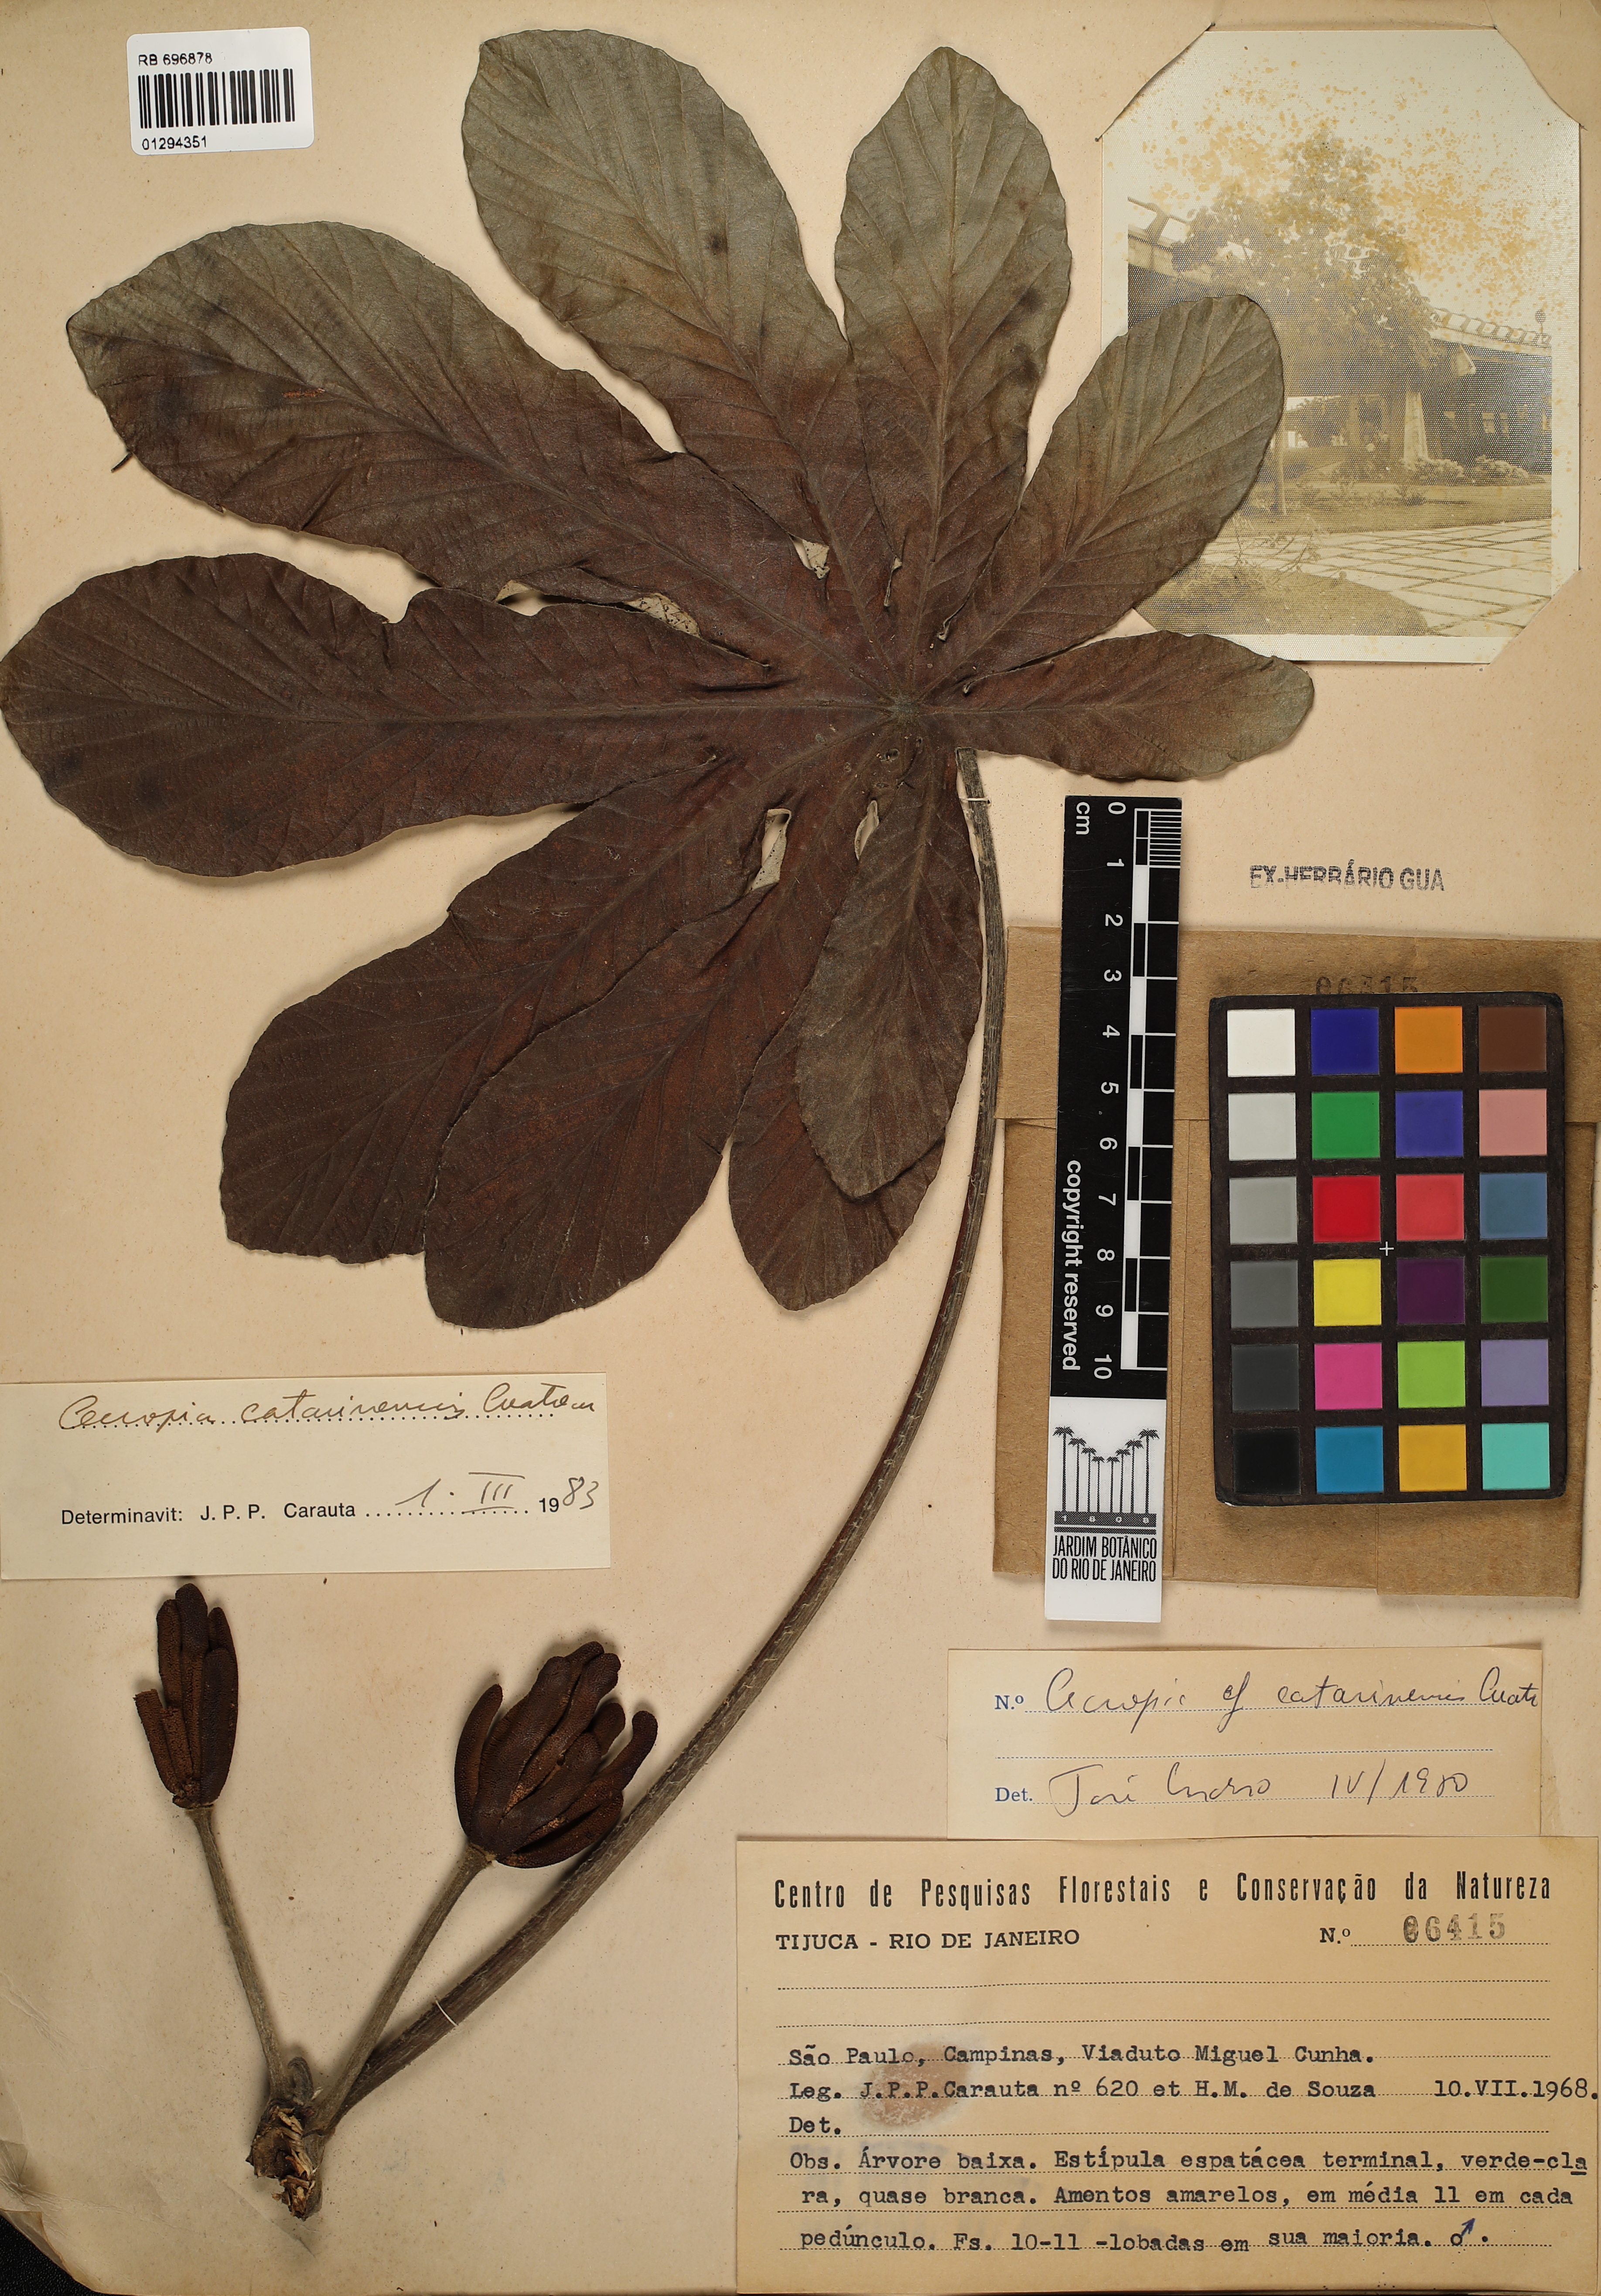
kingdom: Plantae
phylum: Tracheophyta
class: Magnoliopsida
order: Rosales
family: Urticaceae
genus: Cecropia
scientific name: Cecropia pachystachya
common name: Ambay pumpwood
